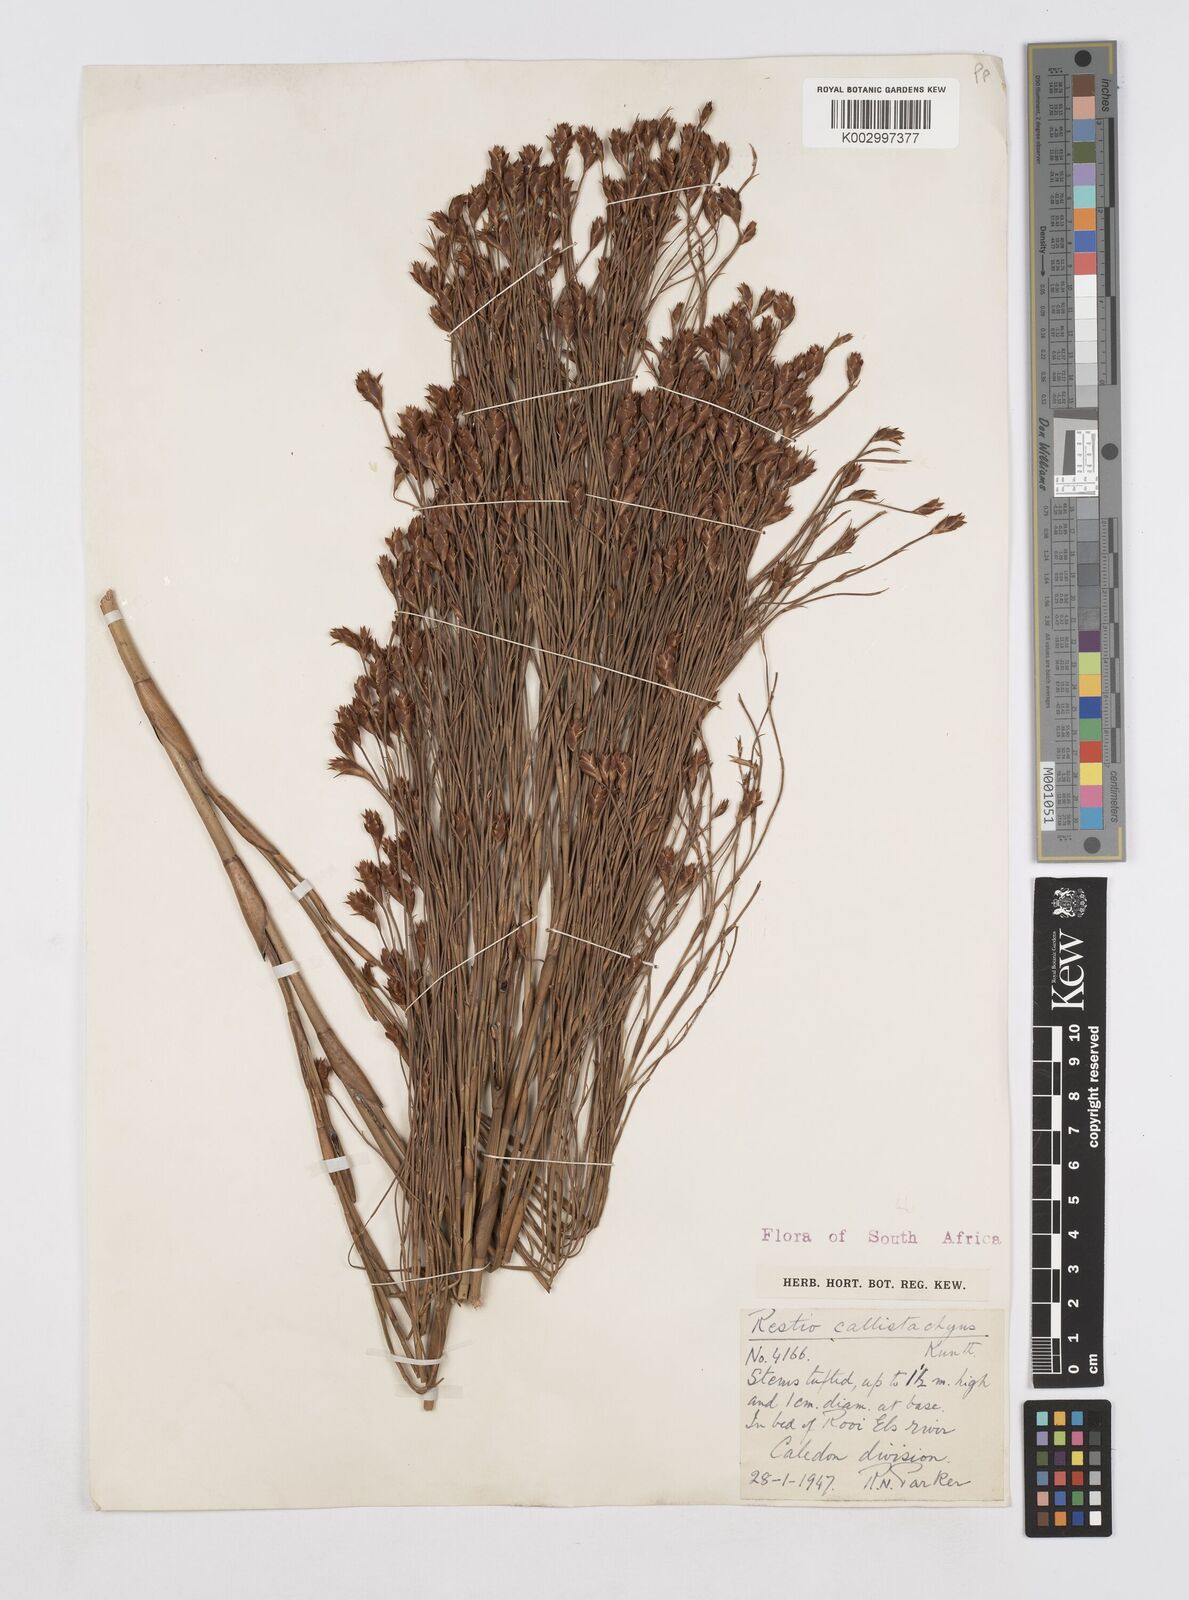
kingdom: Plantae
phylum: Tracheophyta
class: Liliopsida
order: Poales
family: Restionaceae
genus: Platycaulos
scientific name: Platycaulos callistachyus
